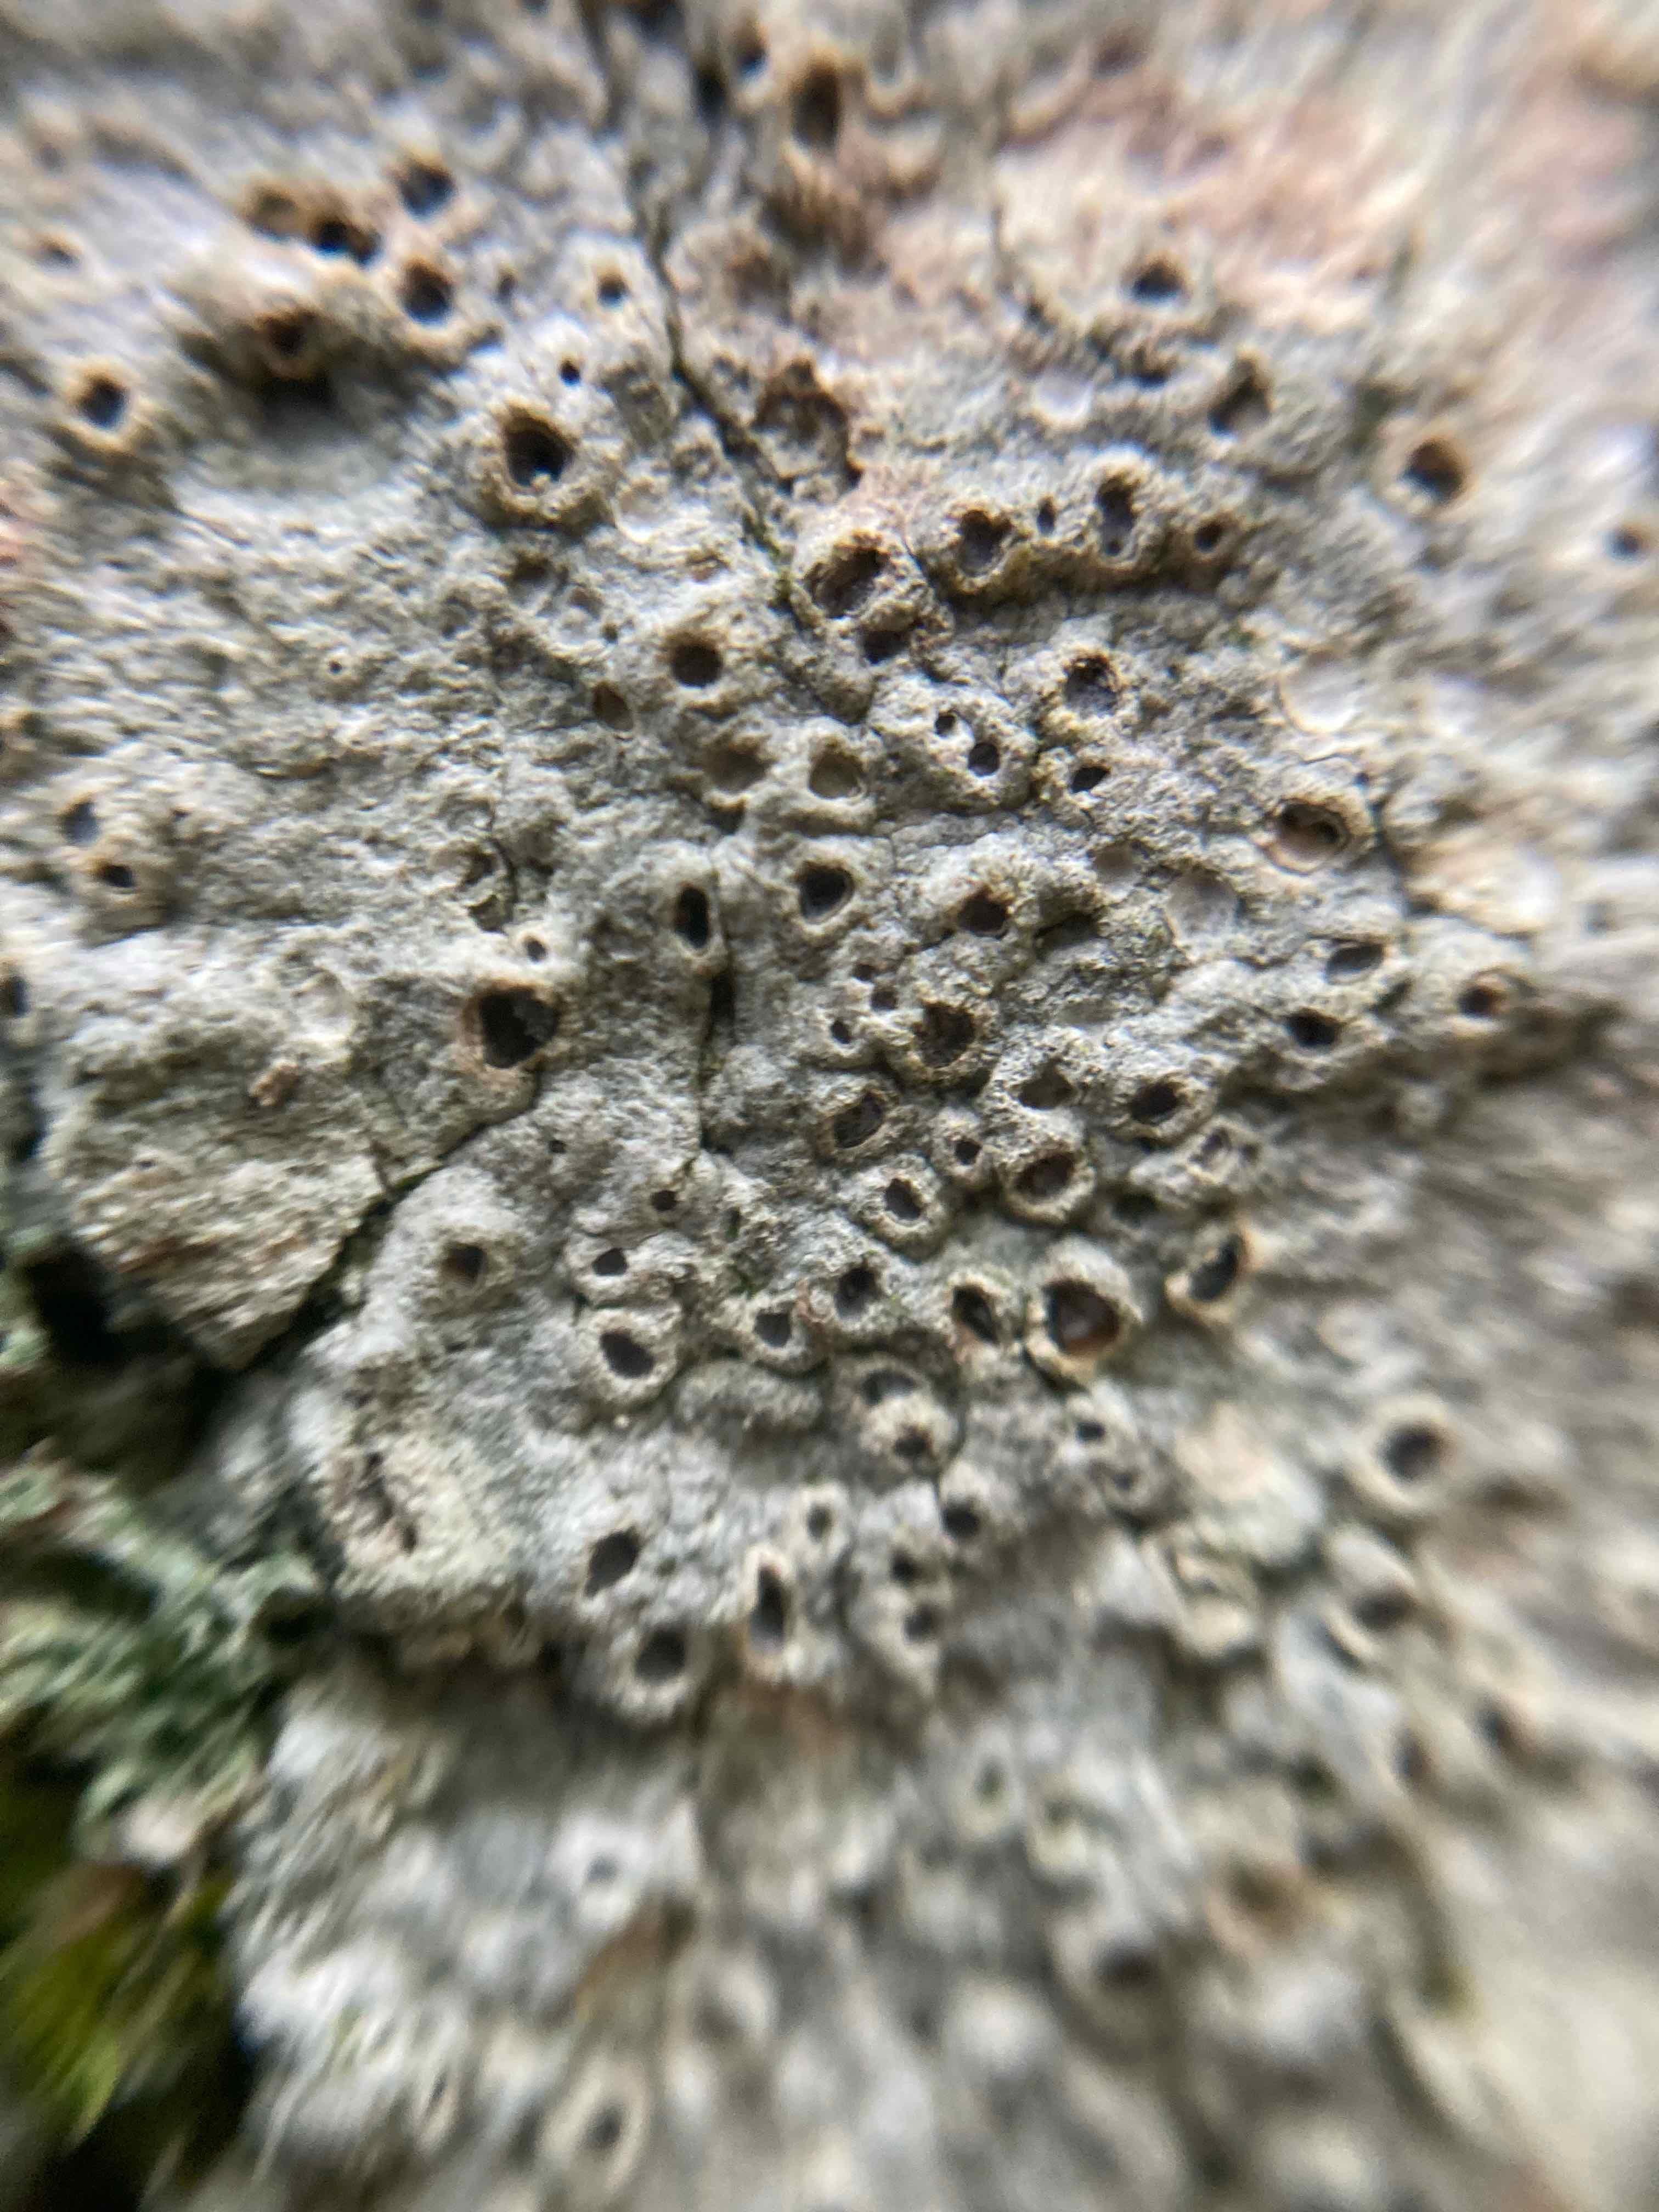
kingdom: Fungi
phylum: Ascomycota
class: Lecanoromycetes
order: Ostropales
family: Graphidaceae
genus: Thelotrema
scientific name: Thelotrema lepadinum
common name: almindelig slørkantlav
